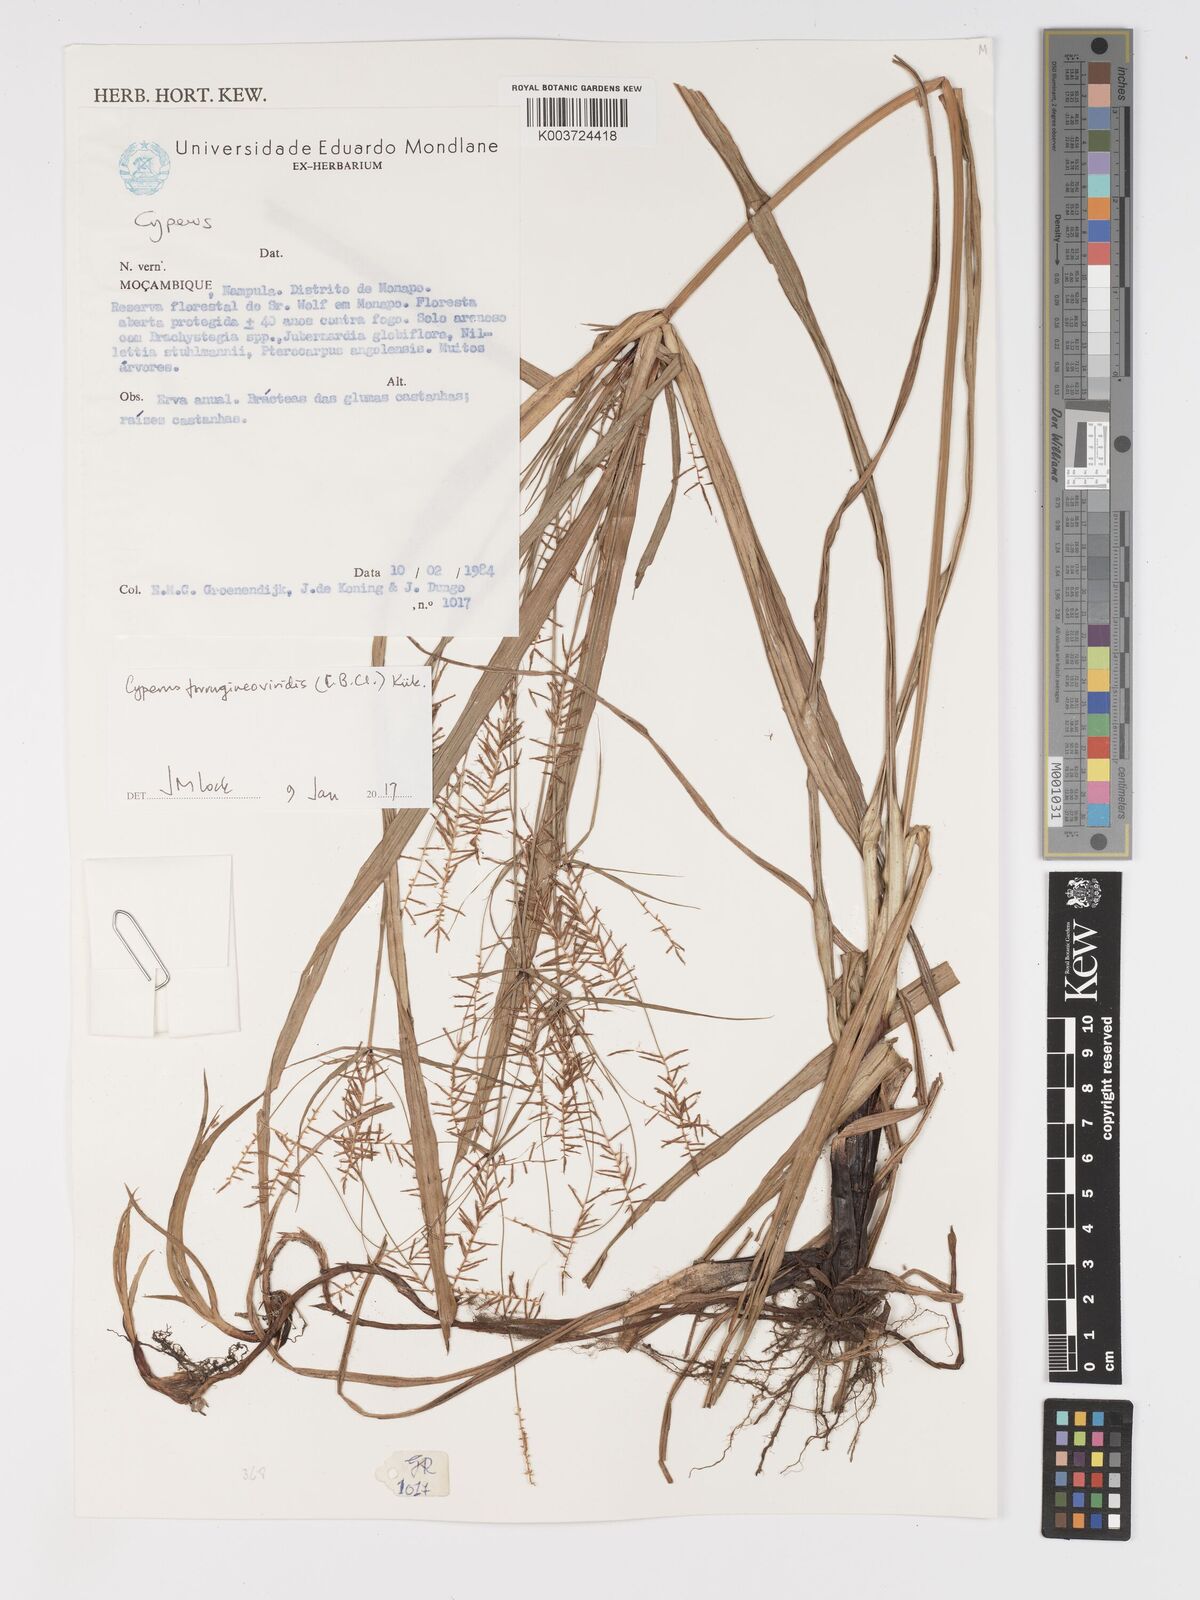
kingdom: Plantae
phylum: Tracheophyta
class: Liliopsida
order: Poales
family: Cyperaceae
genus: Cyperus
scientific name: Cyperus ferrugineoviridis
